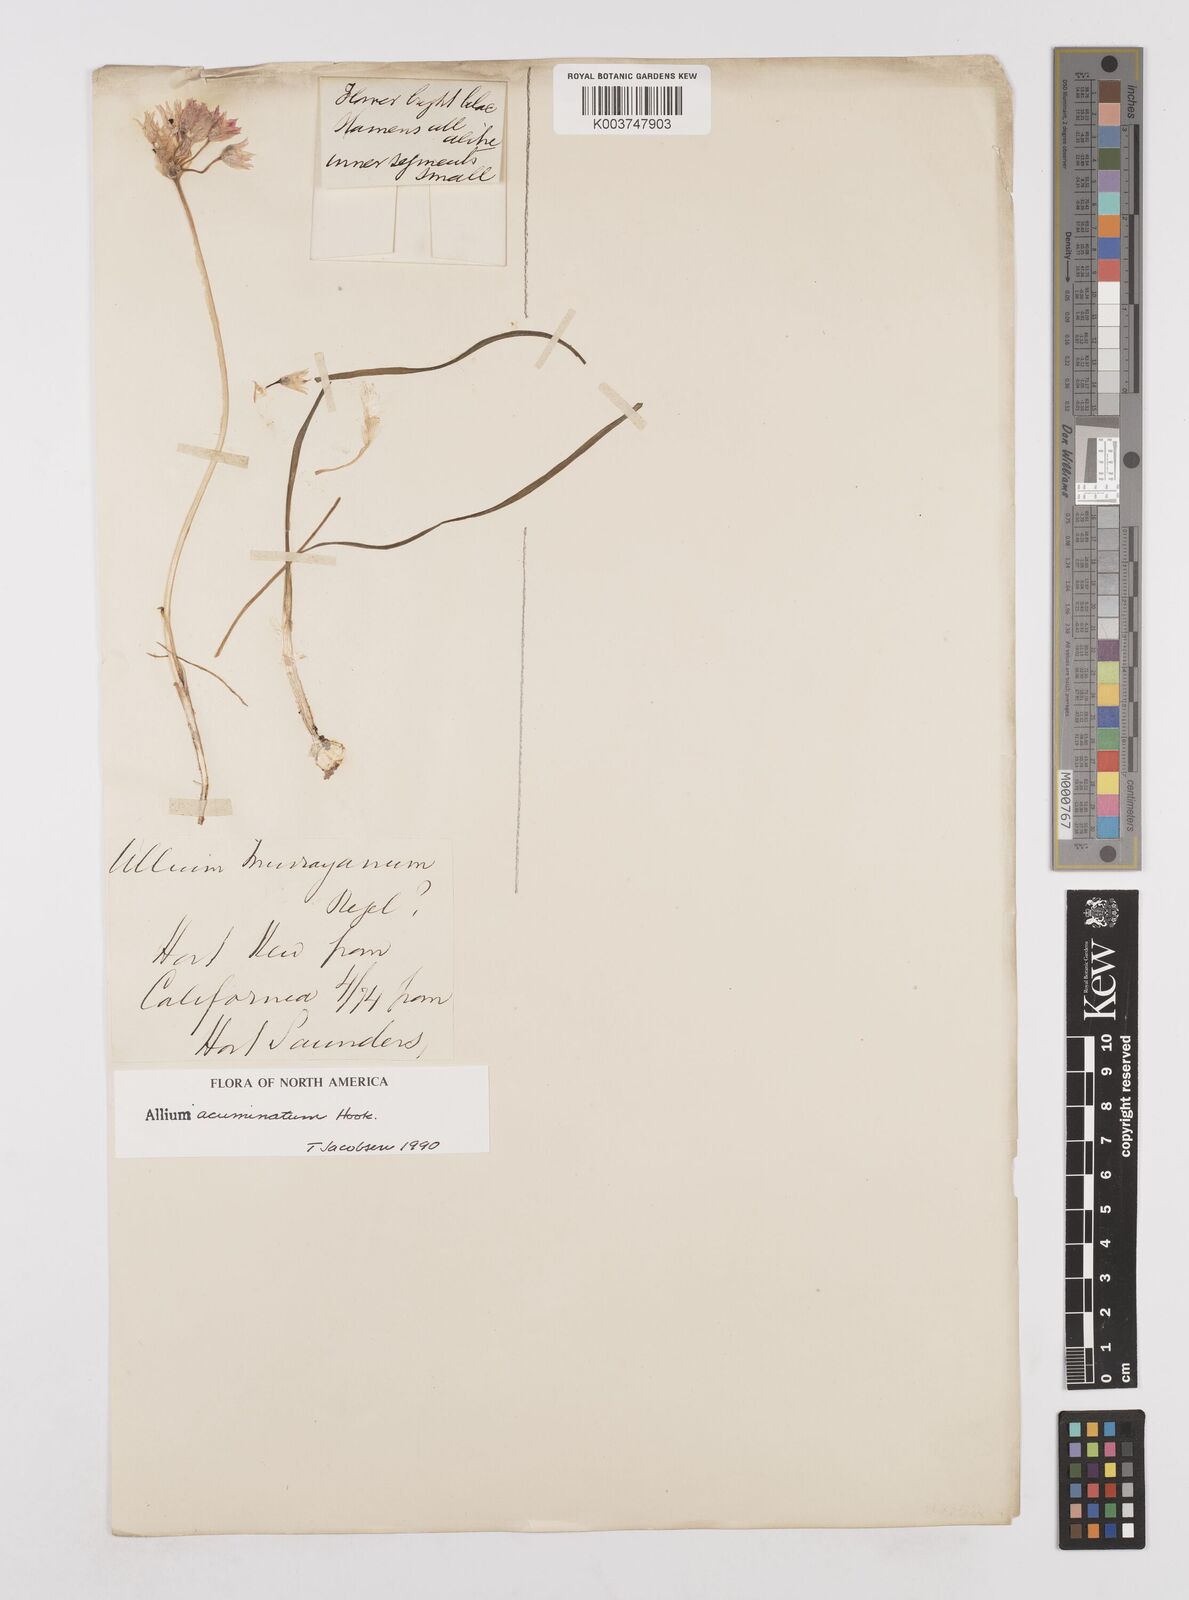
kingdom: Plantae
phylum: Tracheophyta
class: Liliopsida
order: Asparagales
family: Amaryllidaceae
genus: Allium
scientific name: Allium acuminatum
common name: Hooker's onion
